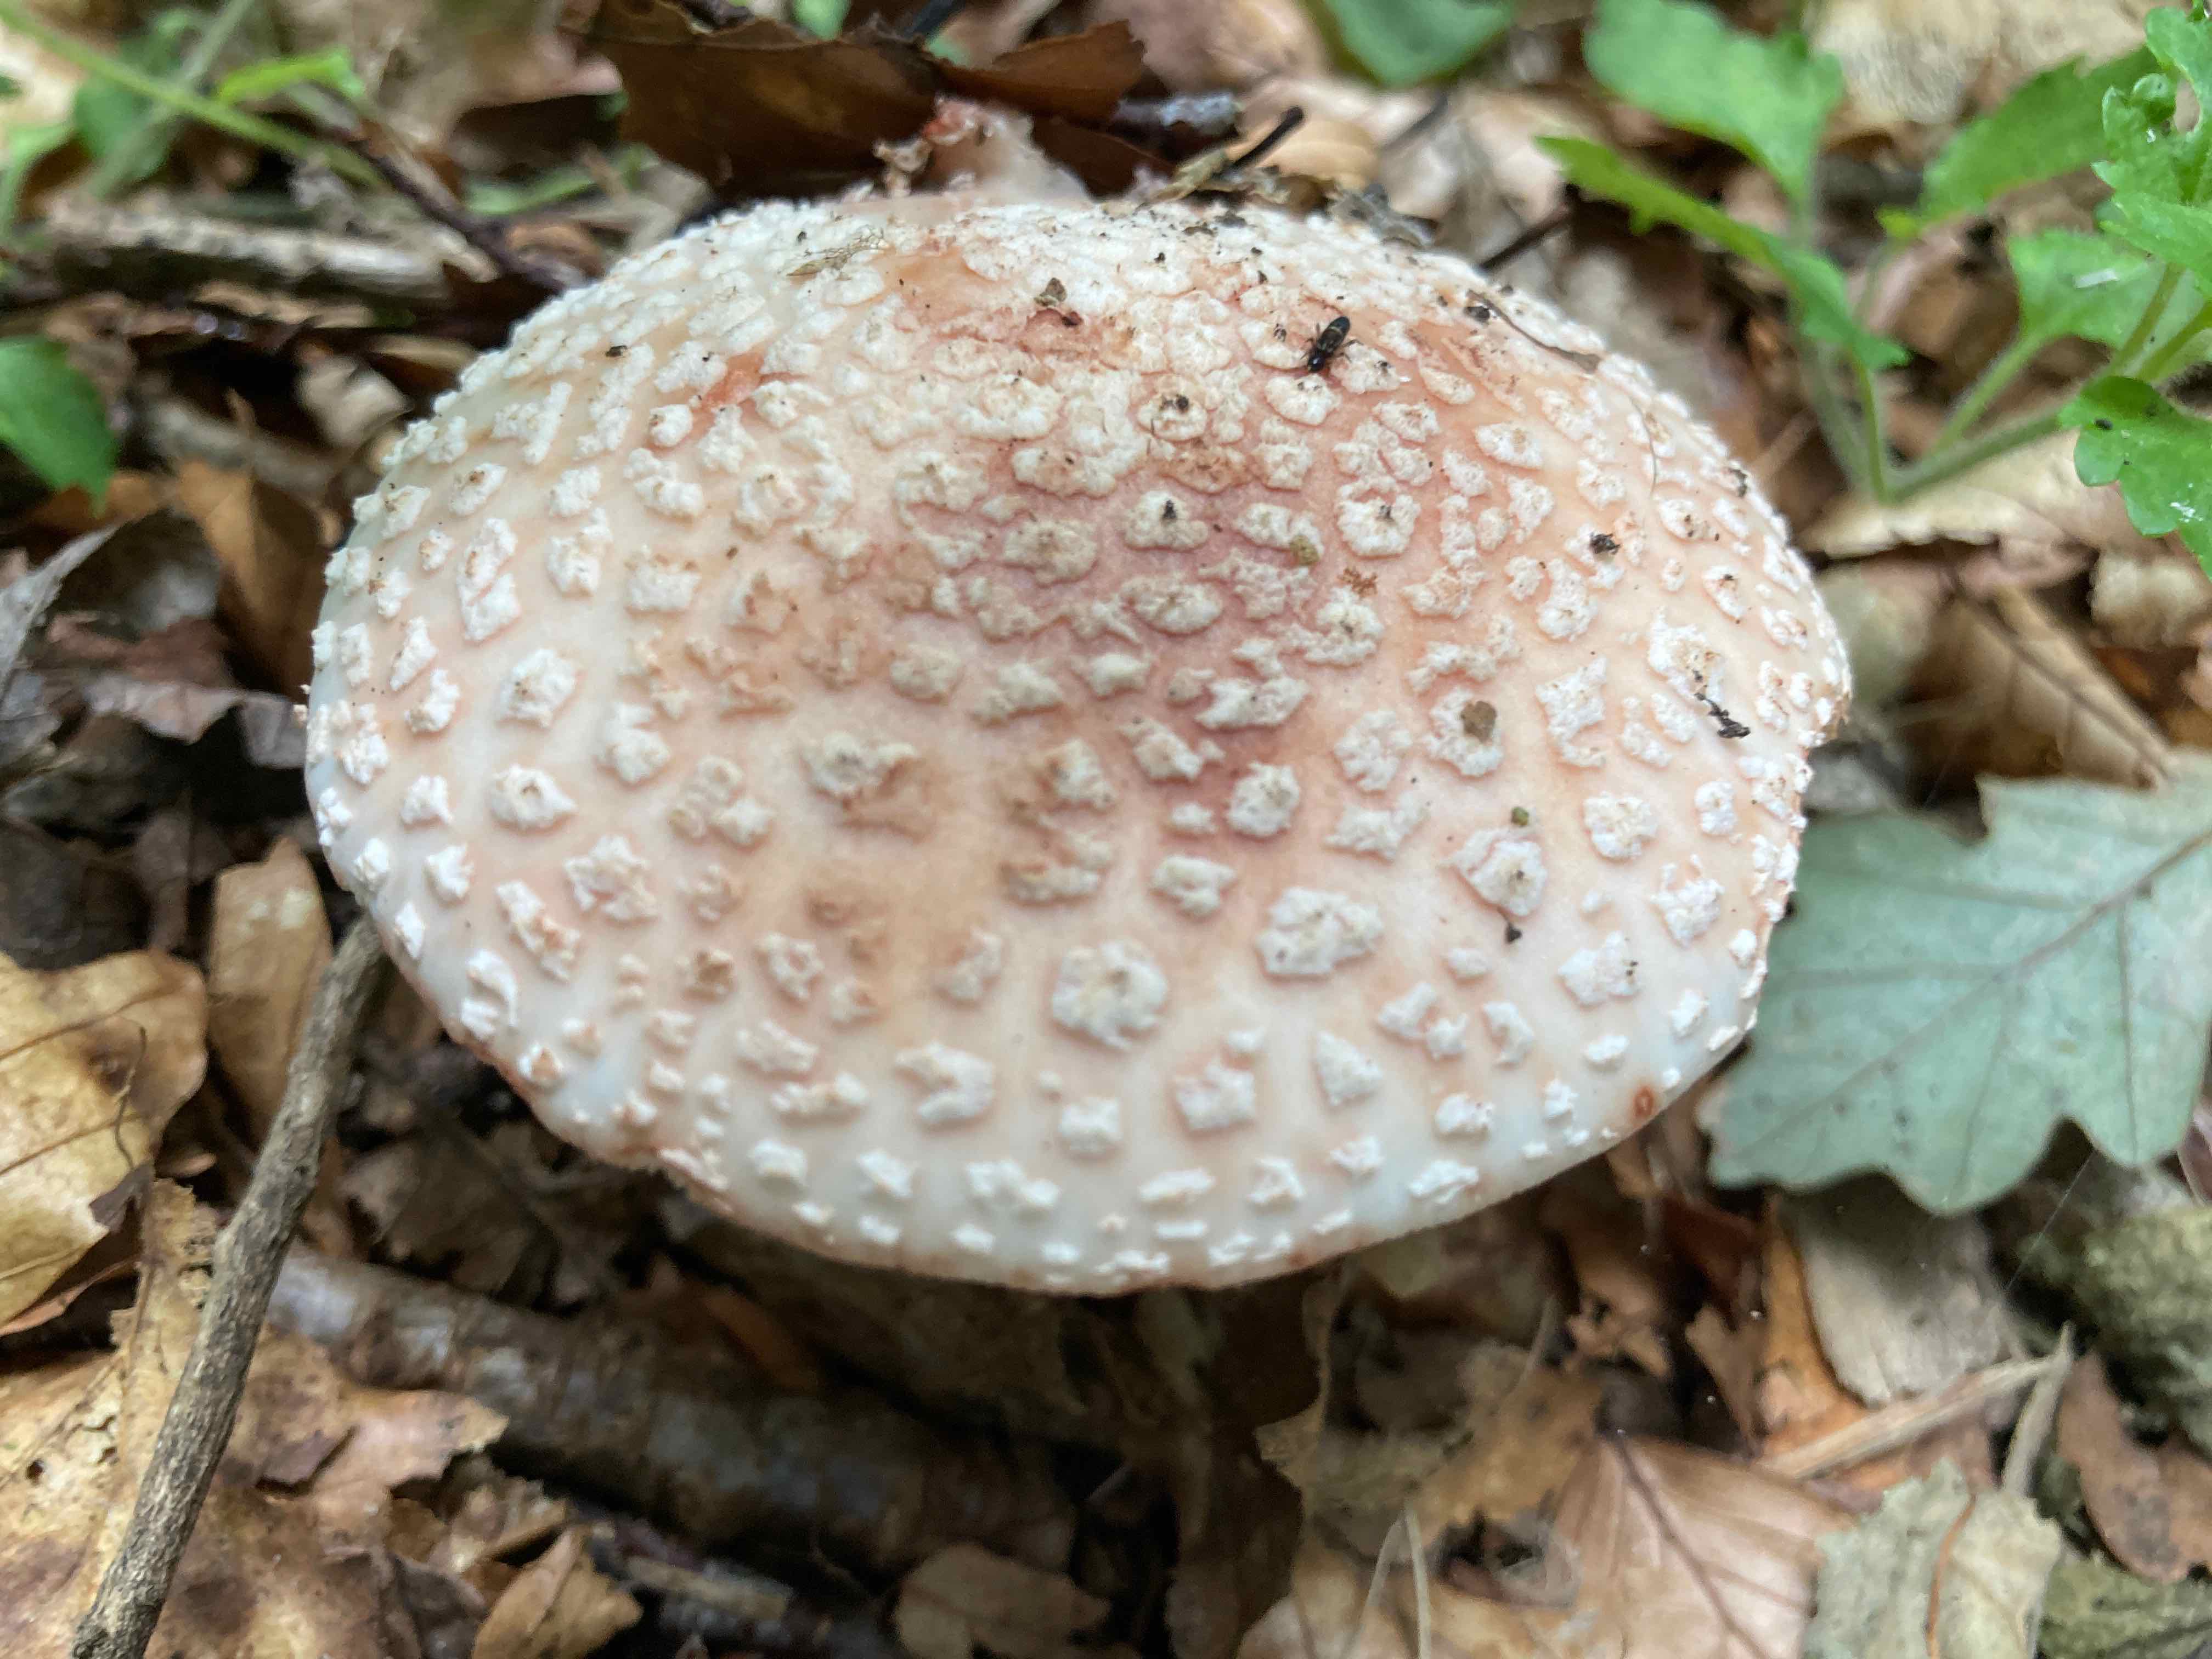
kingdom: Fungi
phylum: Basidiomycota
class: Agaricomycetes
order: Agaricales
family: Amanitaceae
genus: Amanita
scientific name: Amanita rubescens
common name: rødmende fluesvamp
